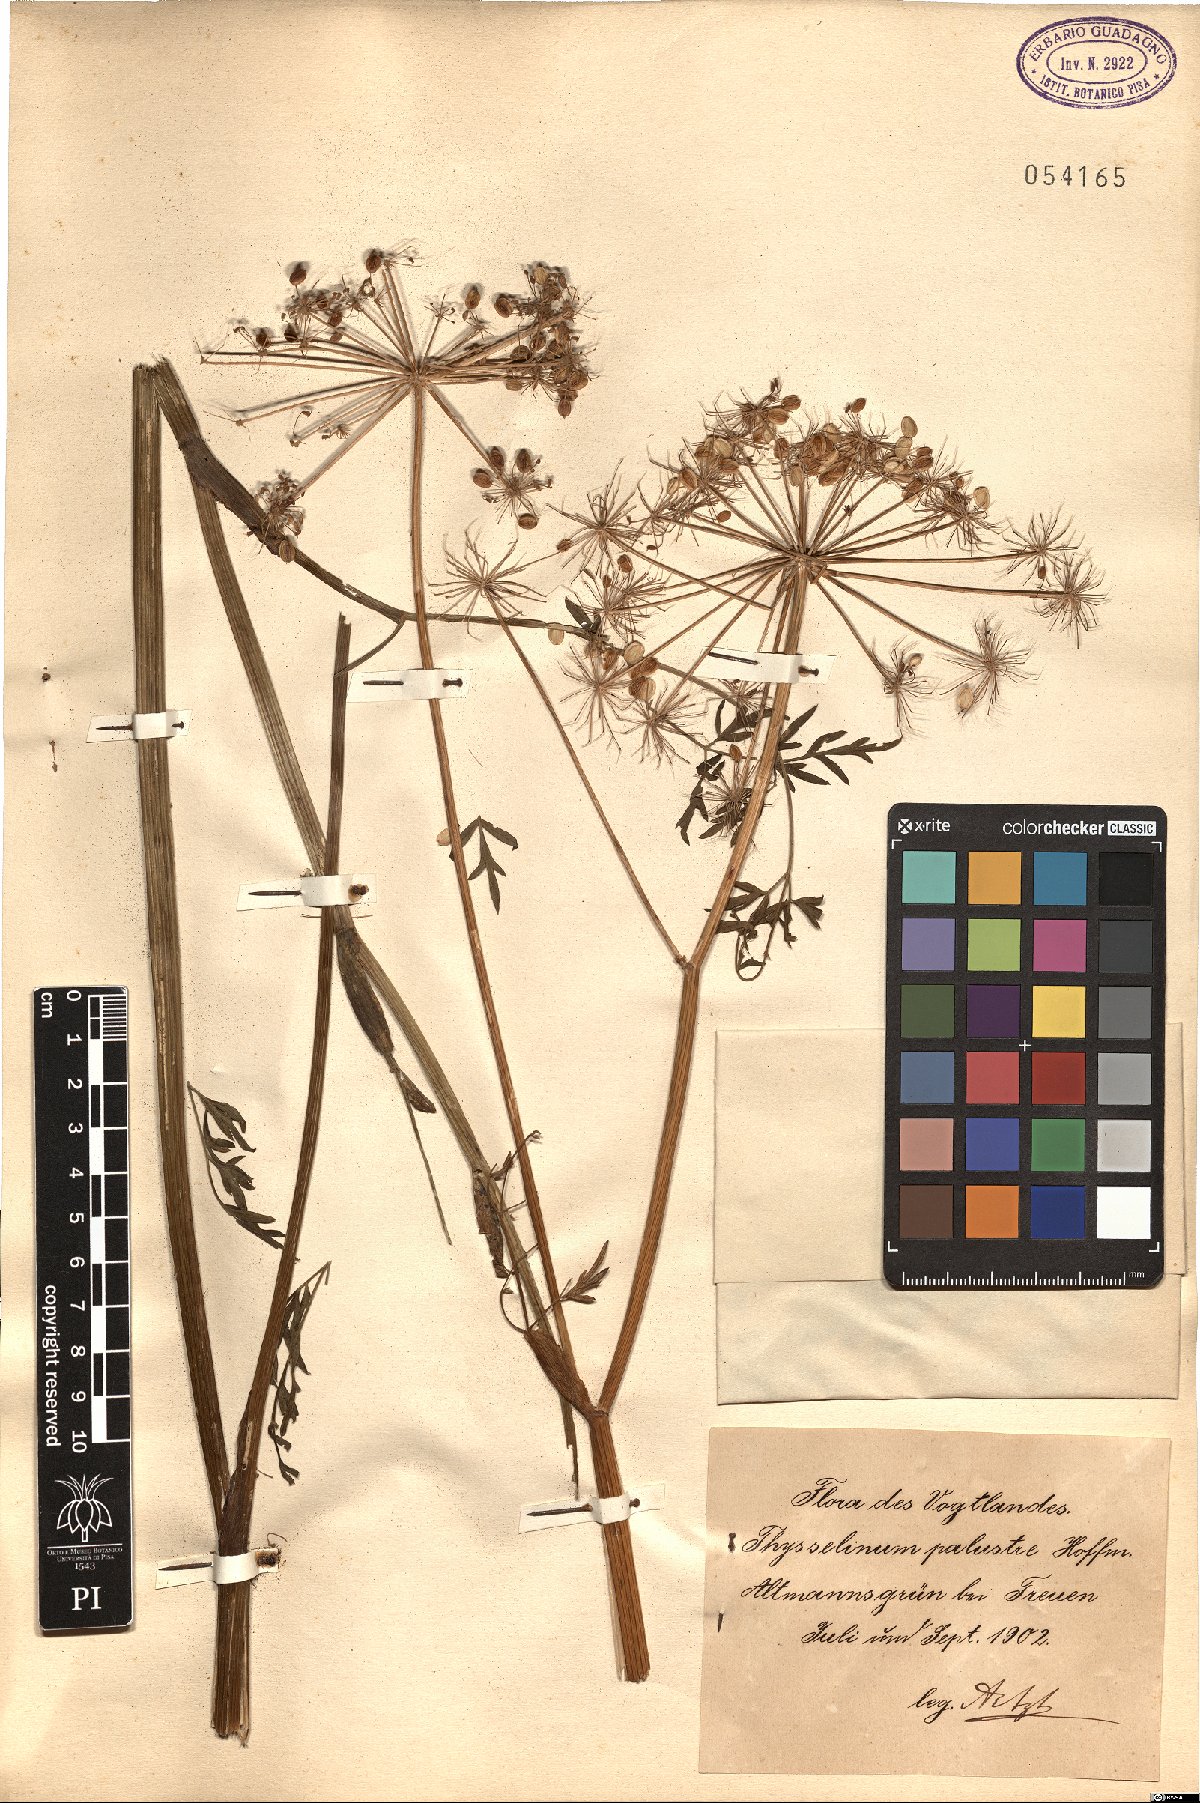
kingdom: Plantae
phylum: Tracheophyta
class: Magnoliopsida
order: Apiales
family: Apiaceae
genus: Thysselinum
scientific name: Thysselinum palustre
